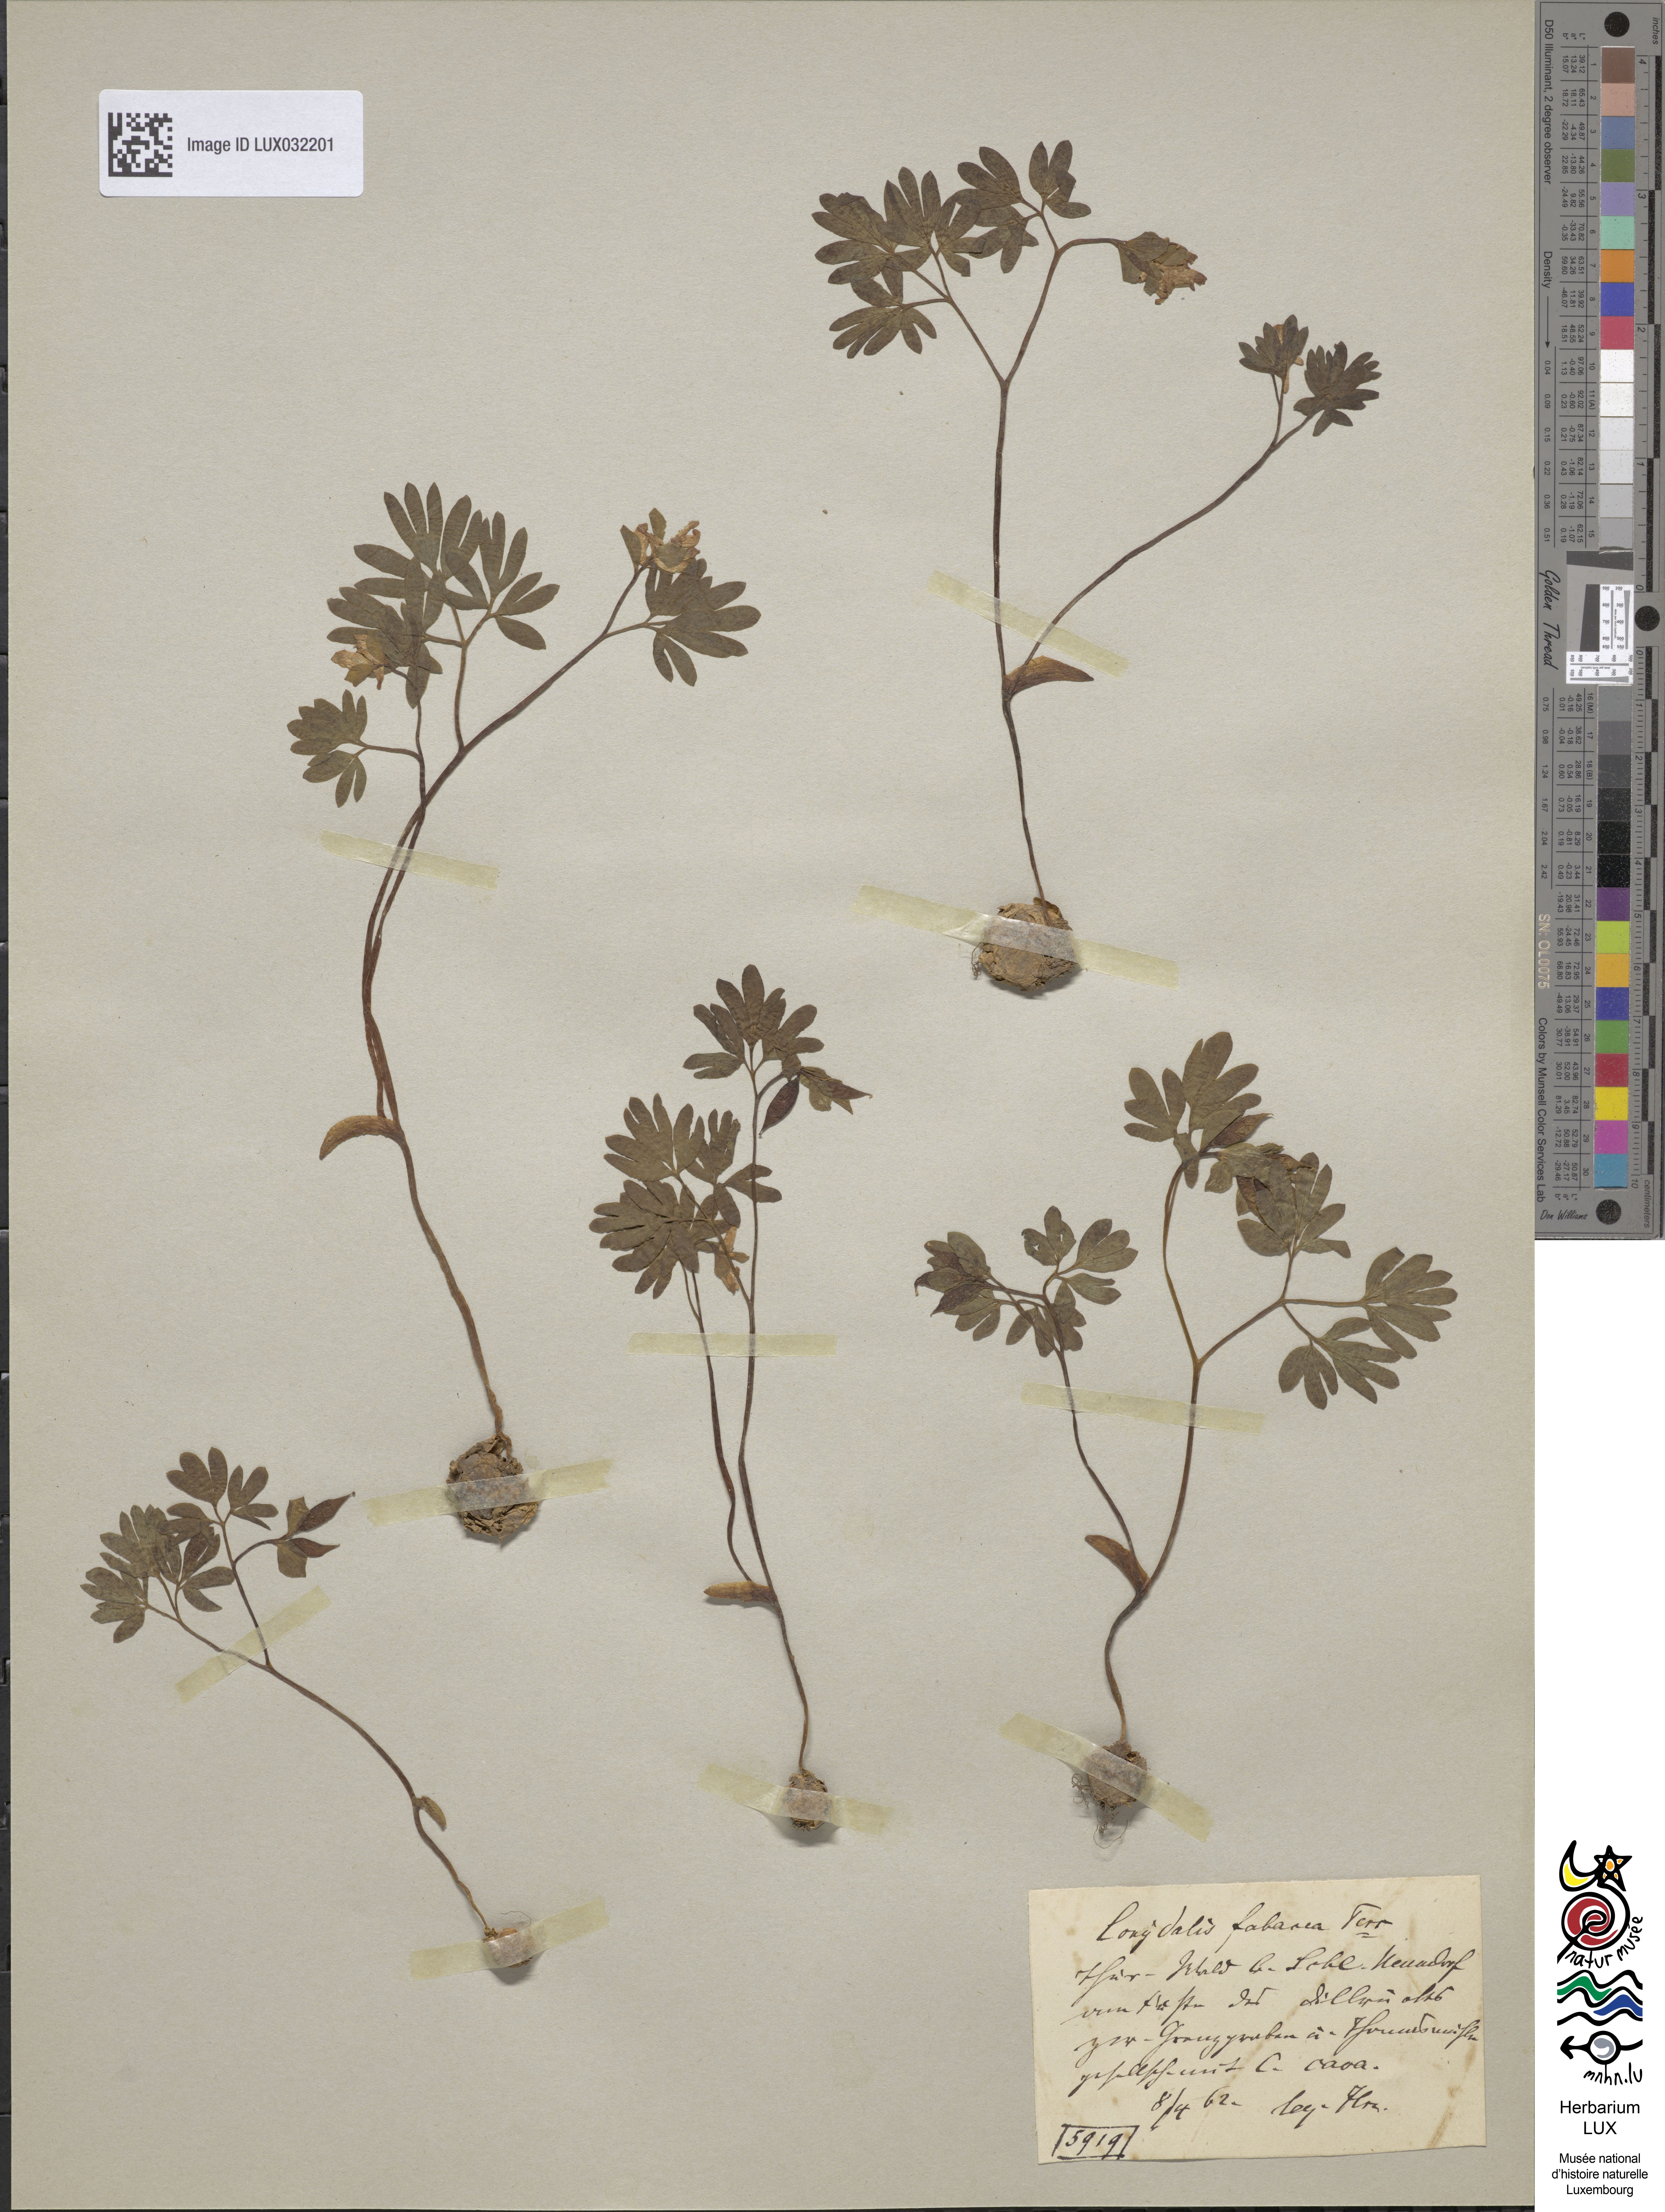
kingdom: Plantae
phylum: Tracheophyta
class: Magnoliopsida
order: Ranunculales
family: Papaveraceae
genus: Corydalis
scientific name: Corydalis intermedia
